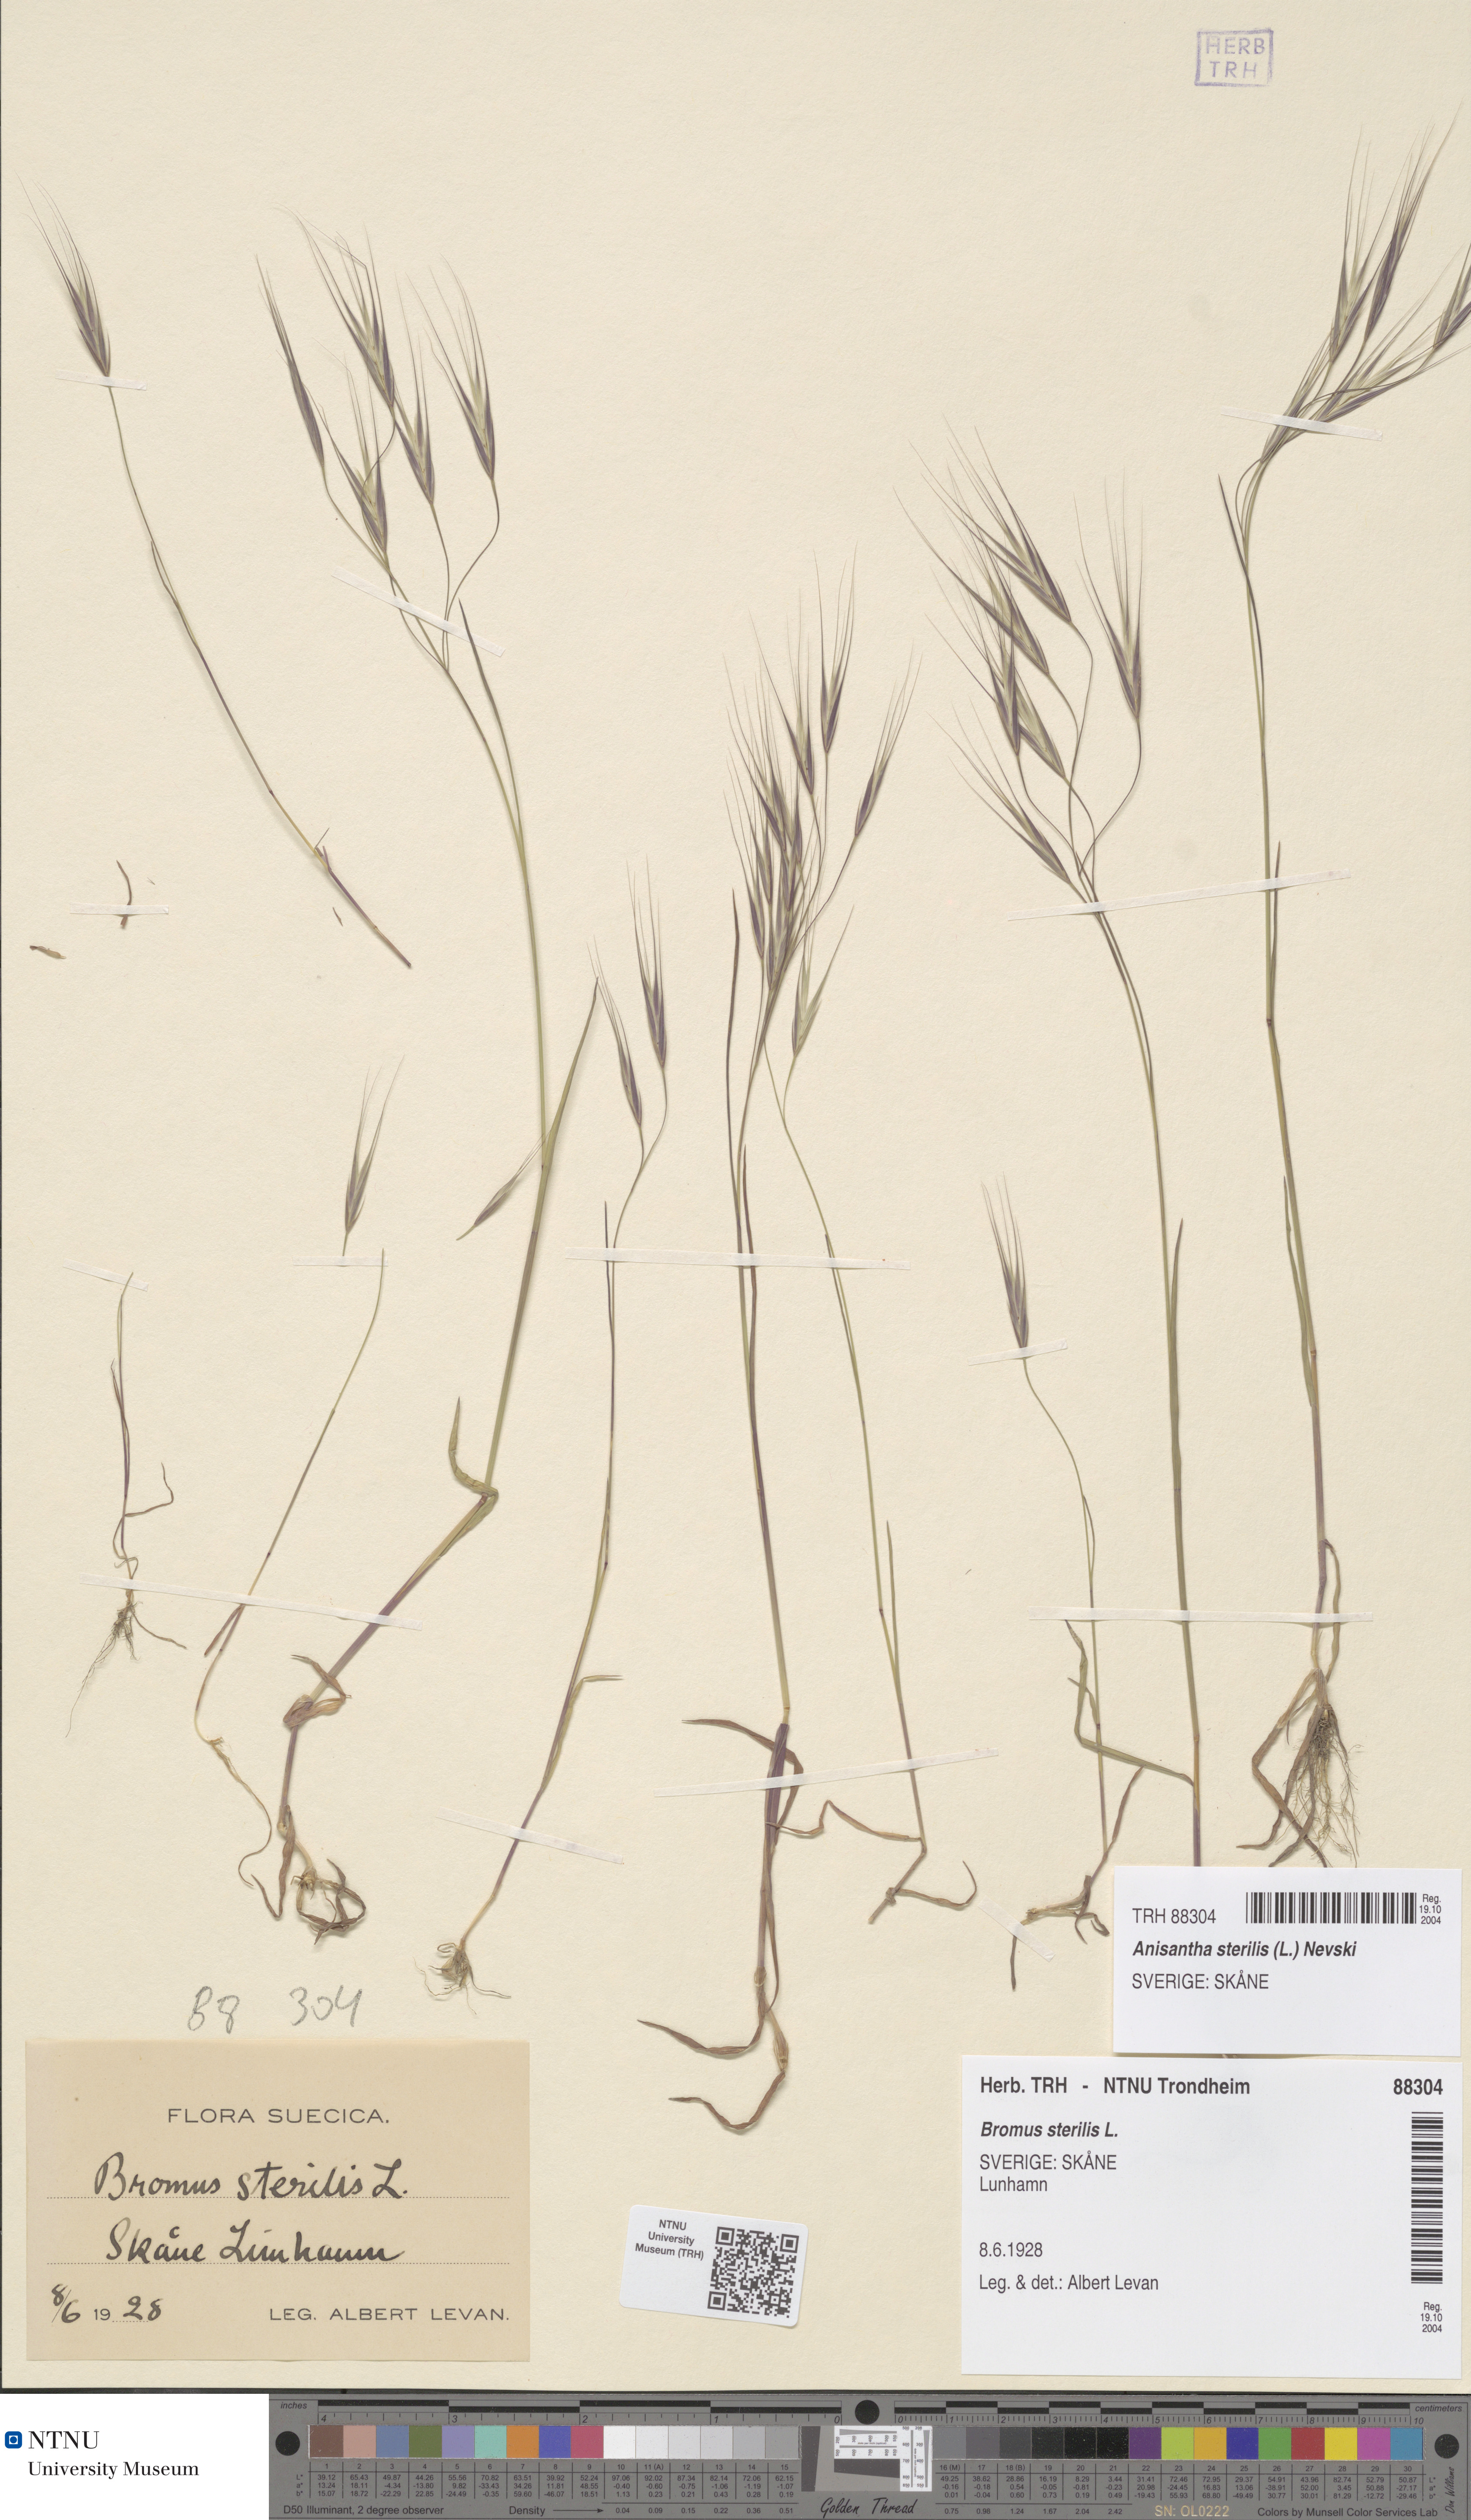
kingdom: Plantae
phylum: Tracheophyta
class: Liliopsida
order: Poales
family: Poaceae
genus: Bromus
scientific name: Bromus sterilis
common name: Poverty brome
